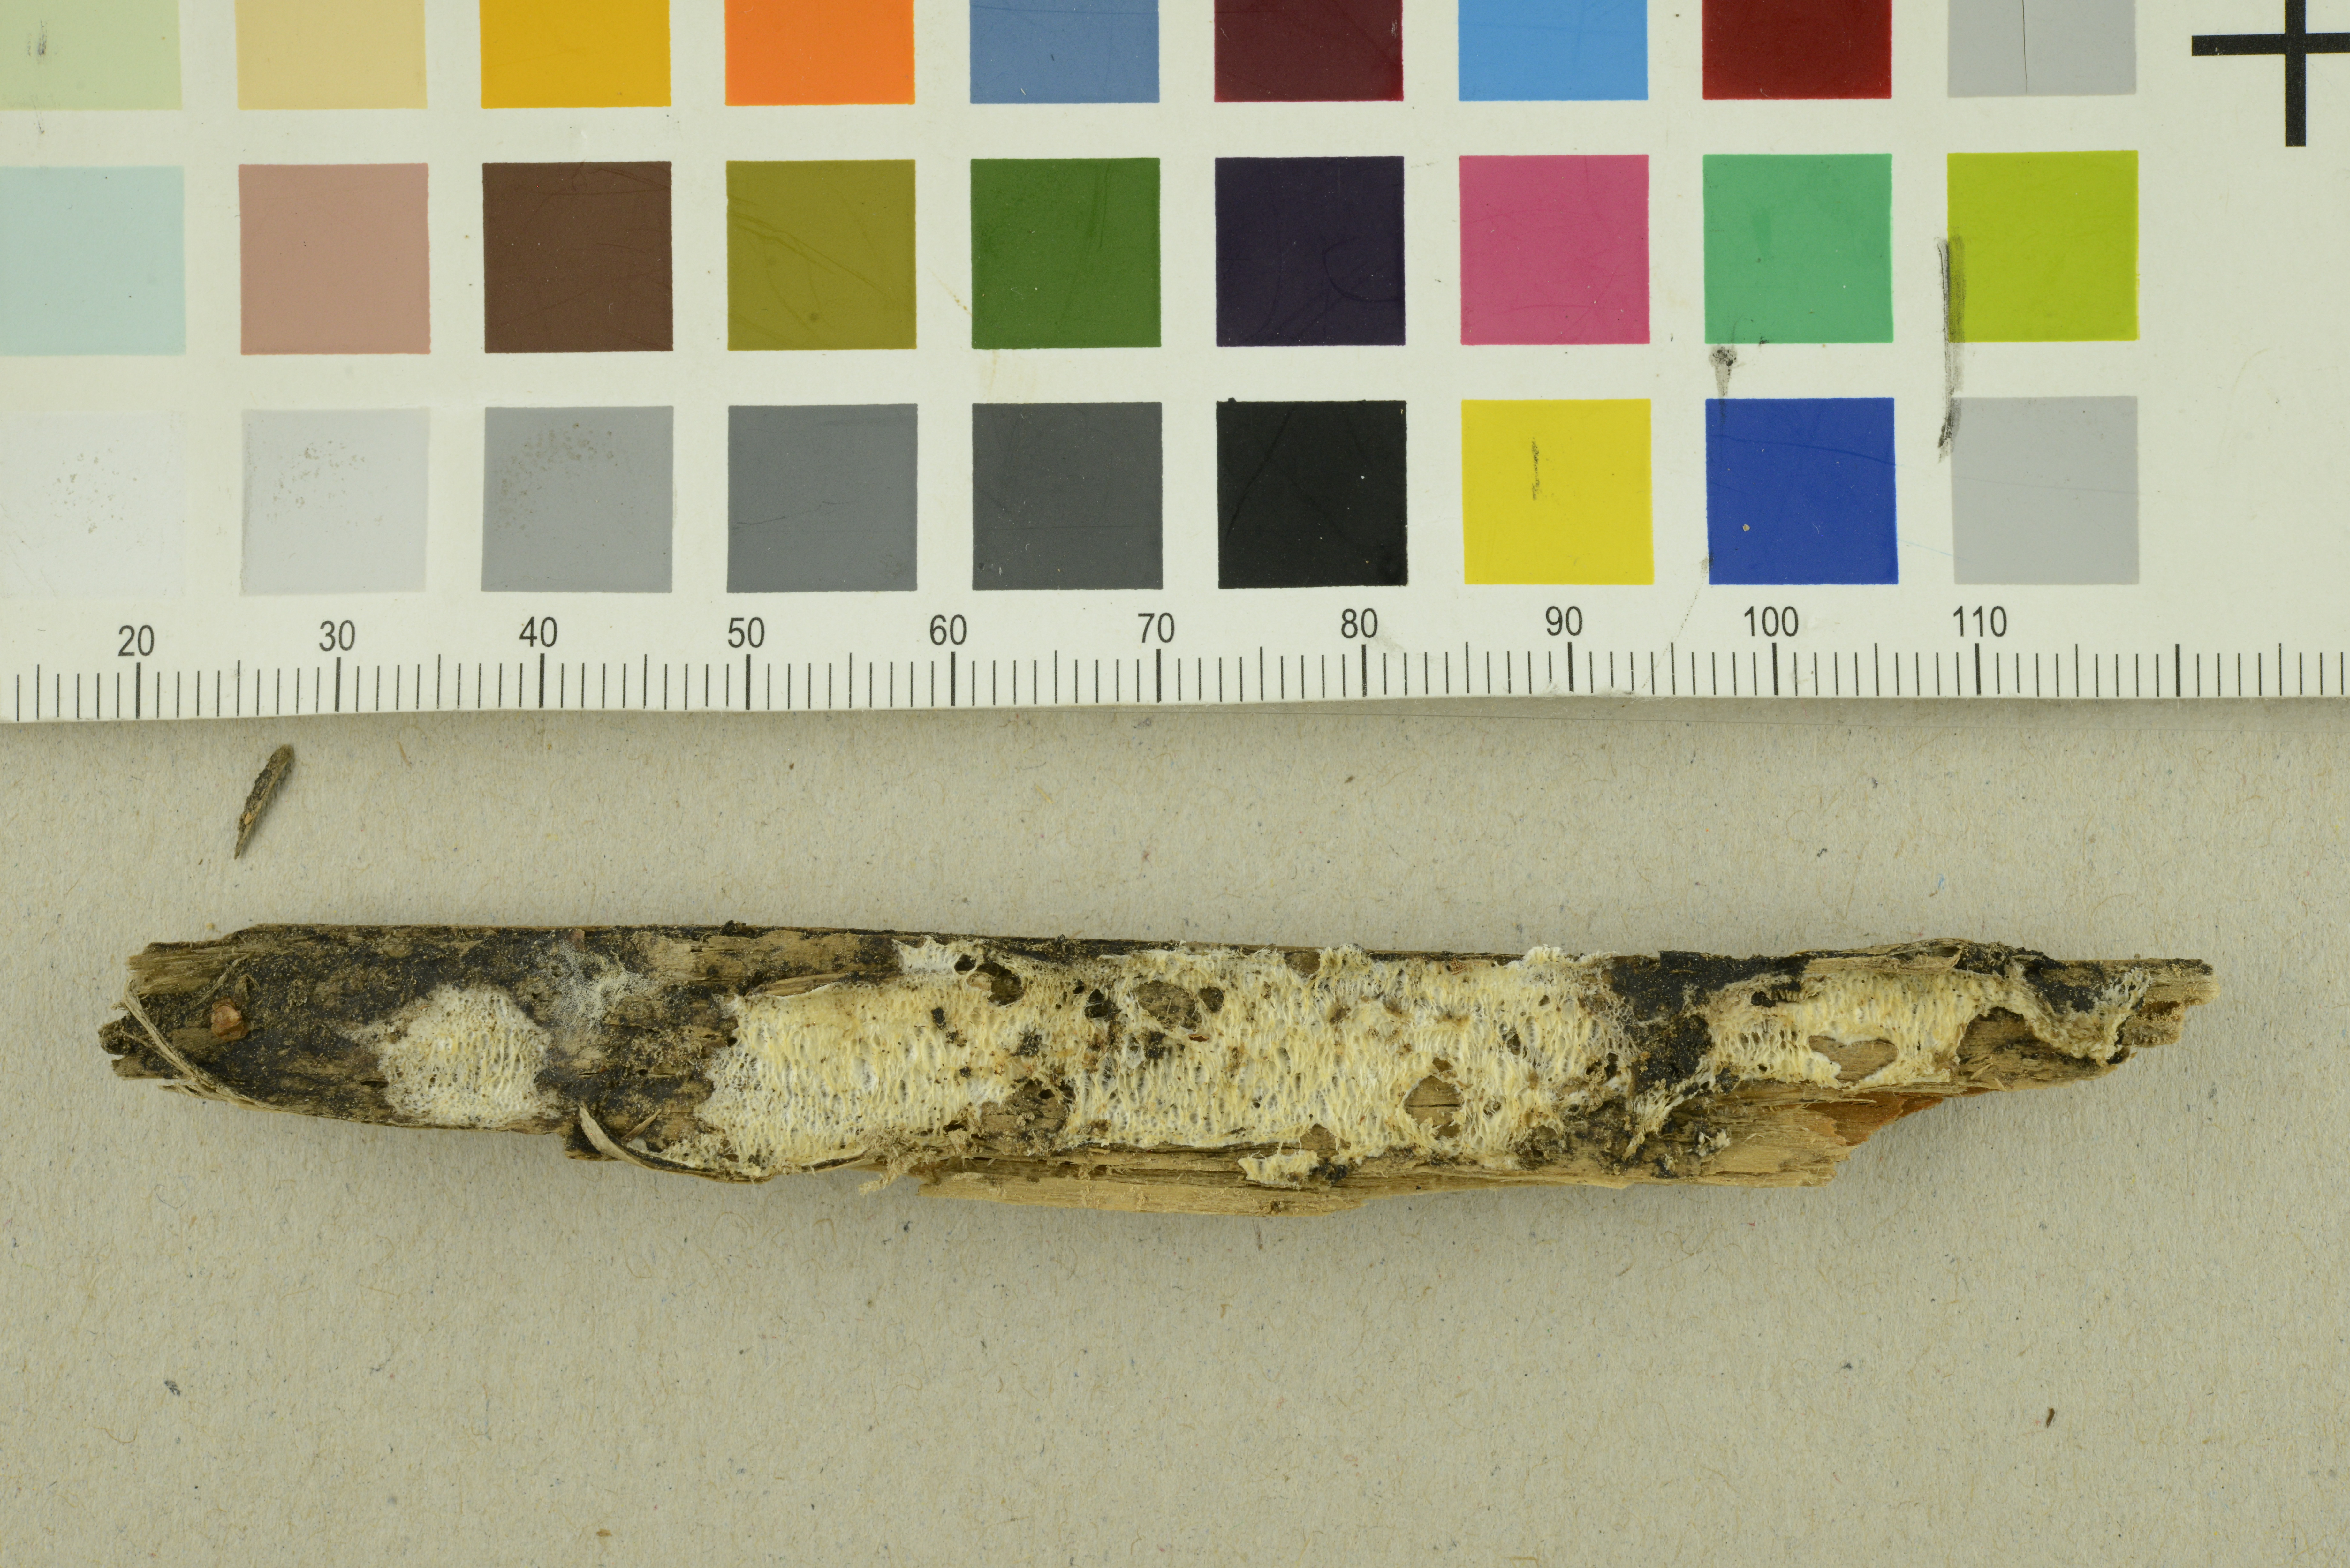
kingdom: Fungi
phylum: Basidiomycota
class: Agaricomycetes
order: Polyporales
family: Incrustoporiaceae
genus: Skeletocutis
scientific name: Skeletocutis delicata
